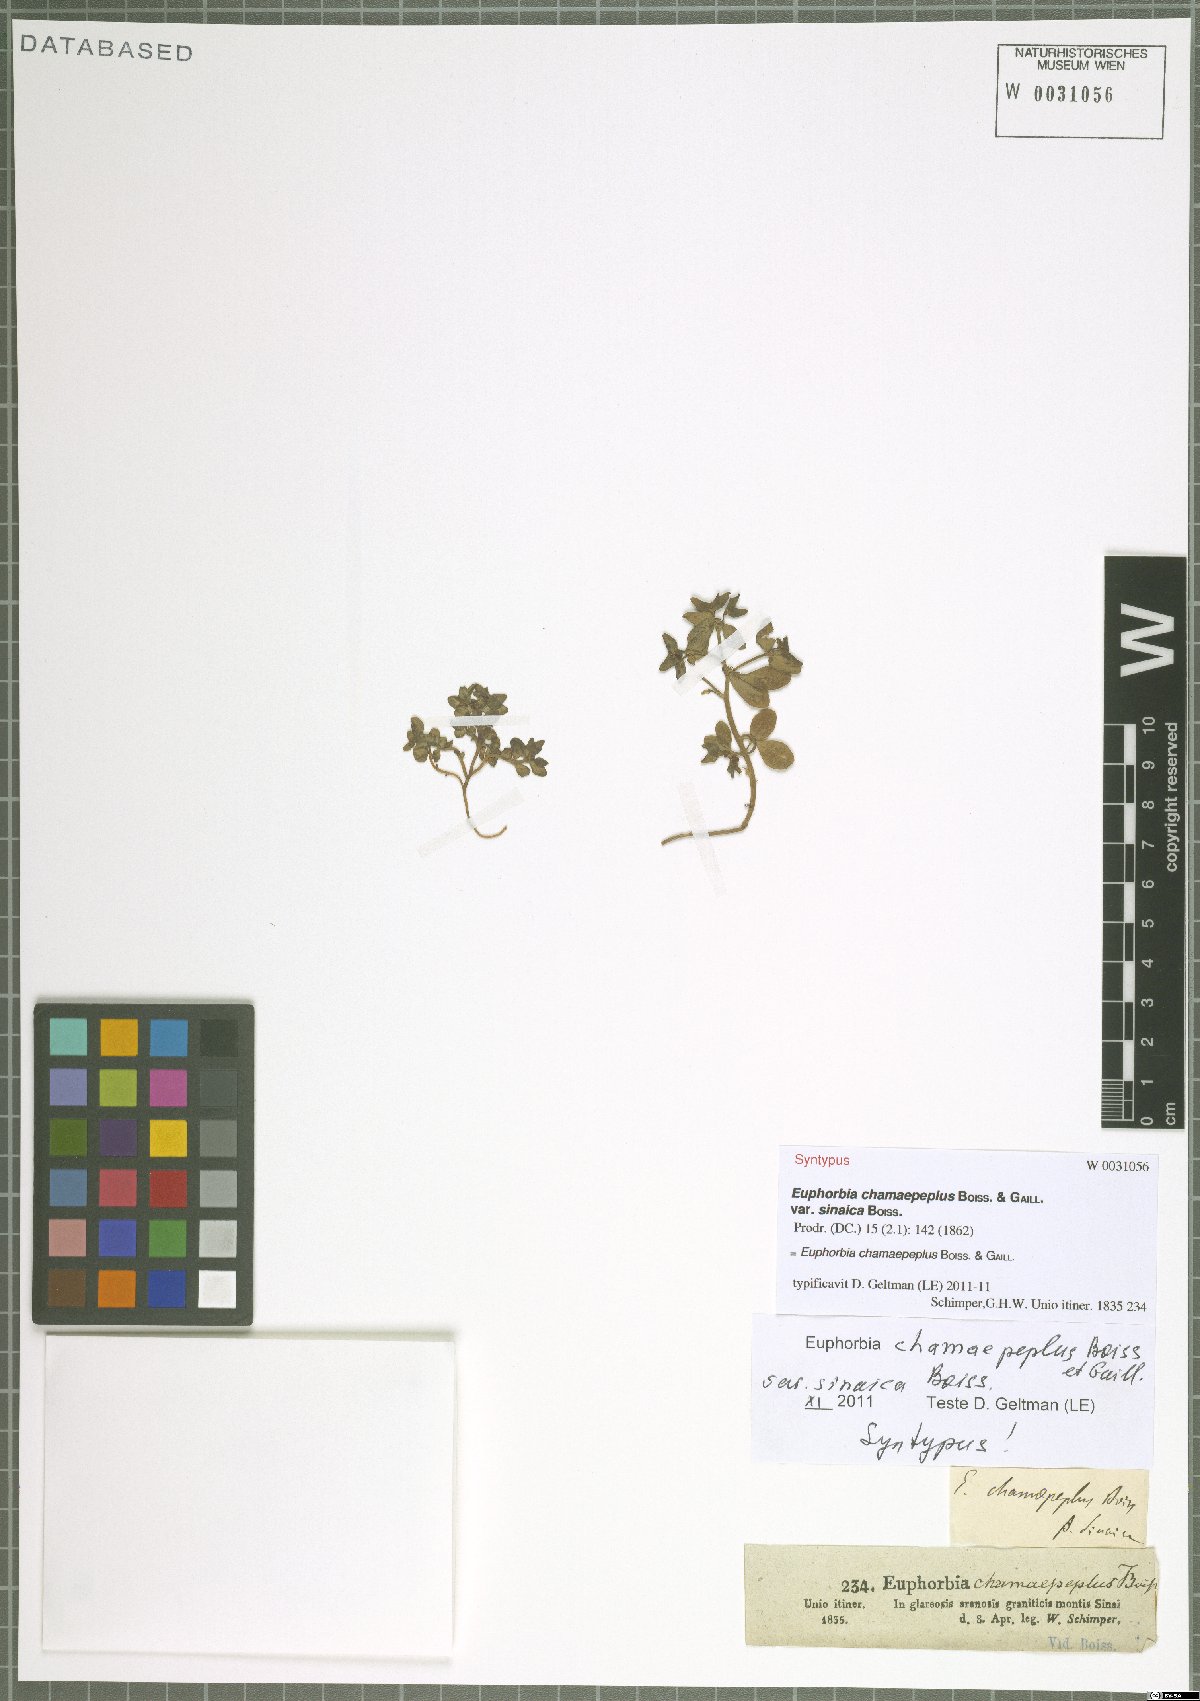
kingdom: Plantae
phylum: Tracheophyta
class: Magnoliopsida
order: Malpighiales
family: Euphorbiaceae
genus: Euphorbia
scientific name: Euphorbia chamaepeplus
